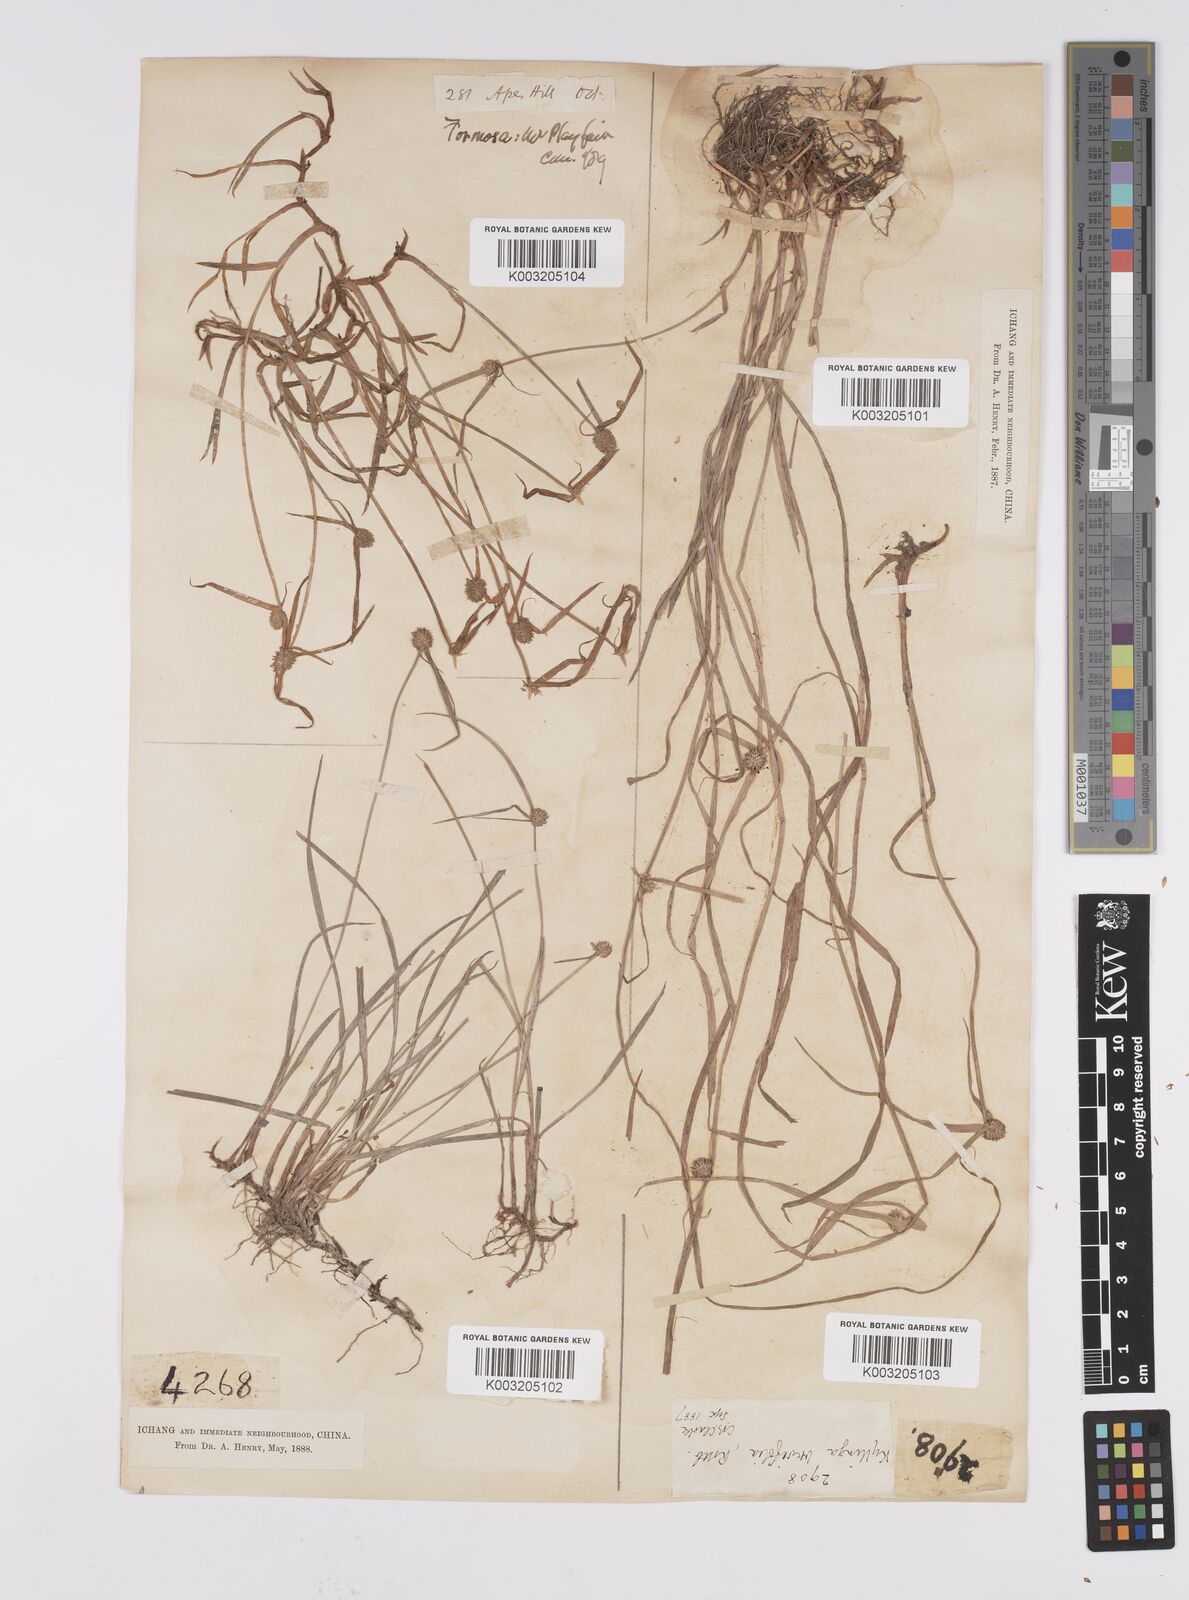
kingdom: Plantae
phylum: Tracheophyta
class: Liliopsida
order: Poales
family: Cyperaceae
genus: Cyperus
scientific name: Cyperus brevifolius
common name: Globe kyllinga
